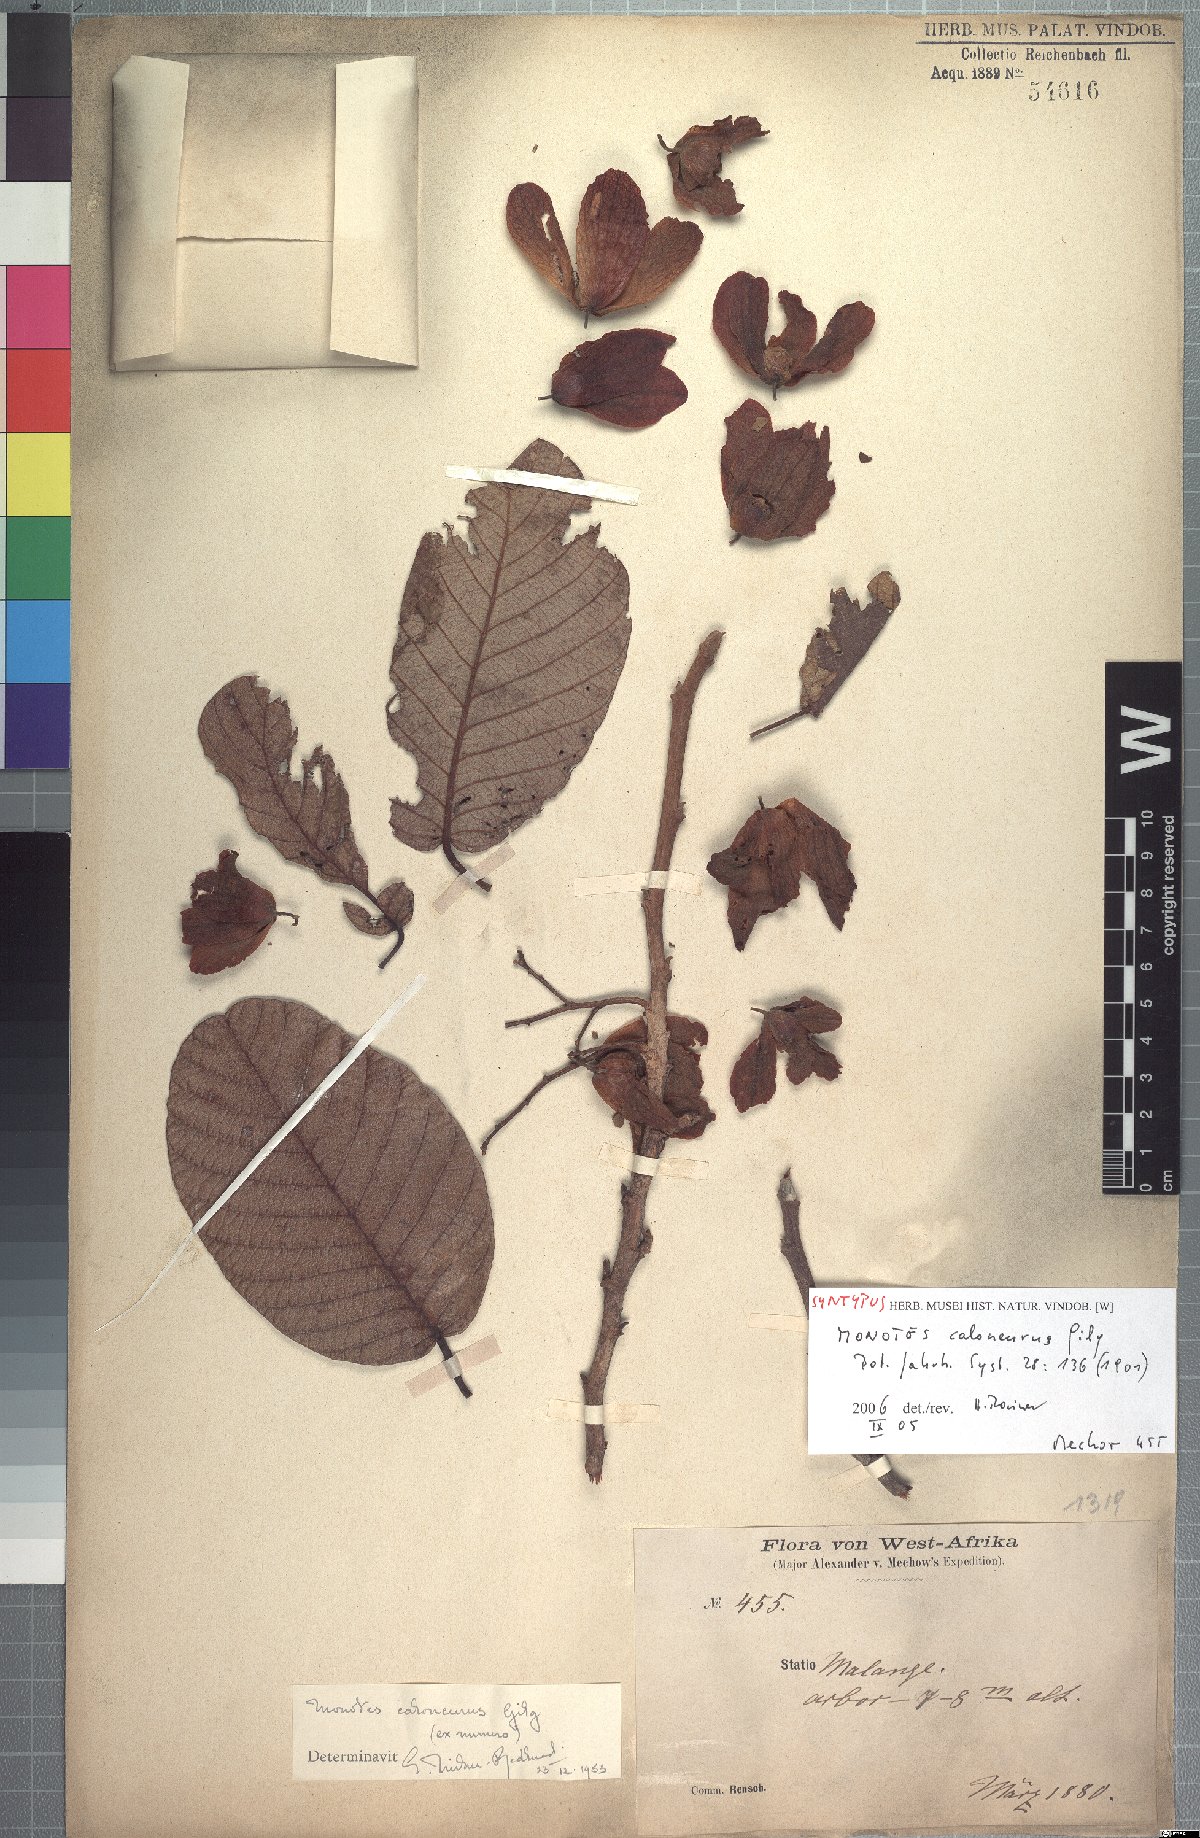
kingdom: Plantae
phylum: Tracheophyta
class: Magnoliopsida
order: Malvales
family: Dipterocarpaceae
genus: Monotes
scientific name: Monotes hypoleucus
